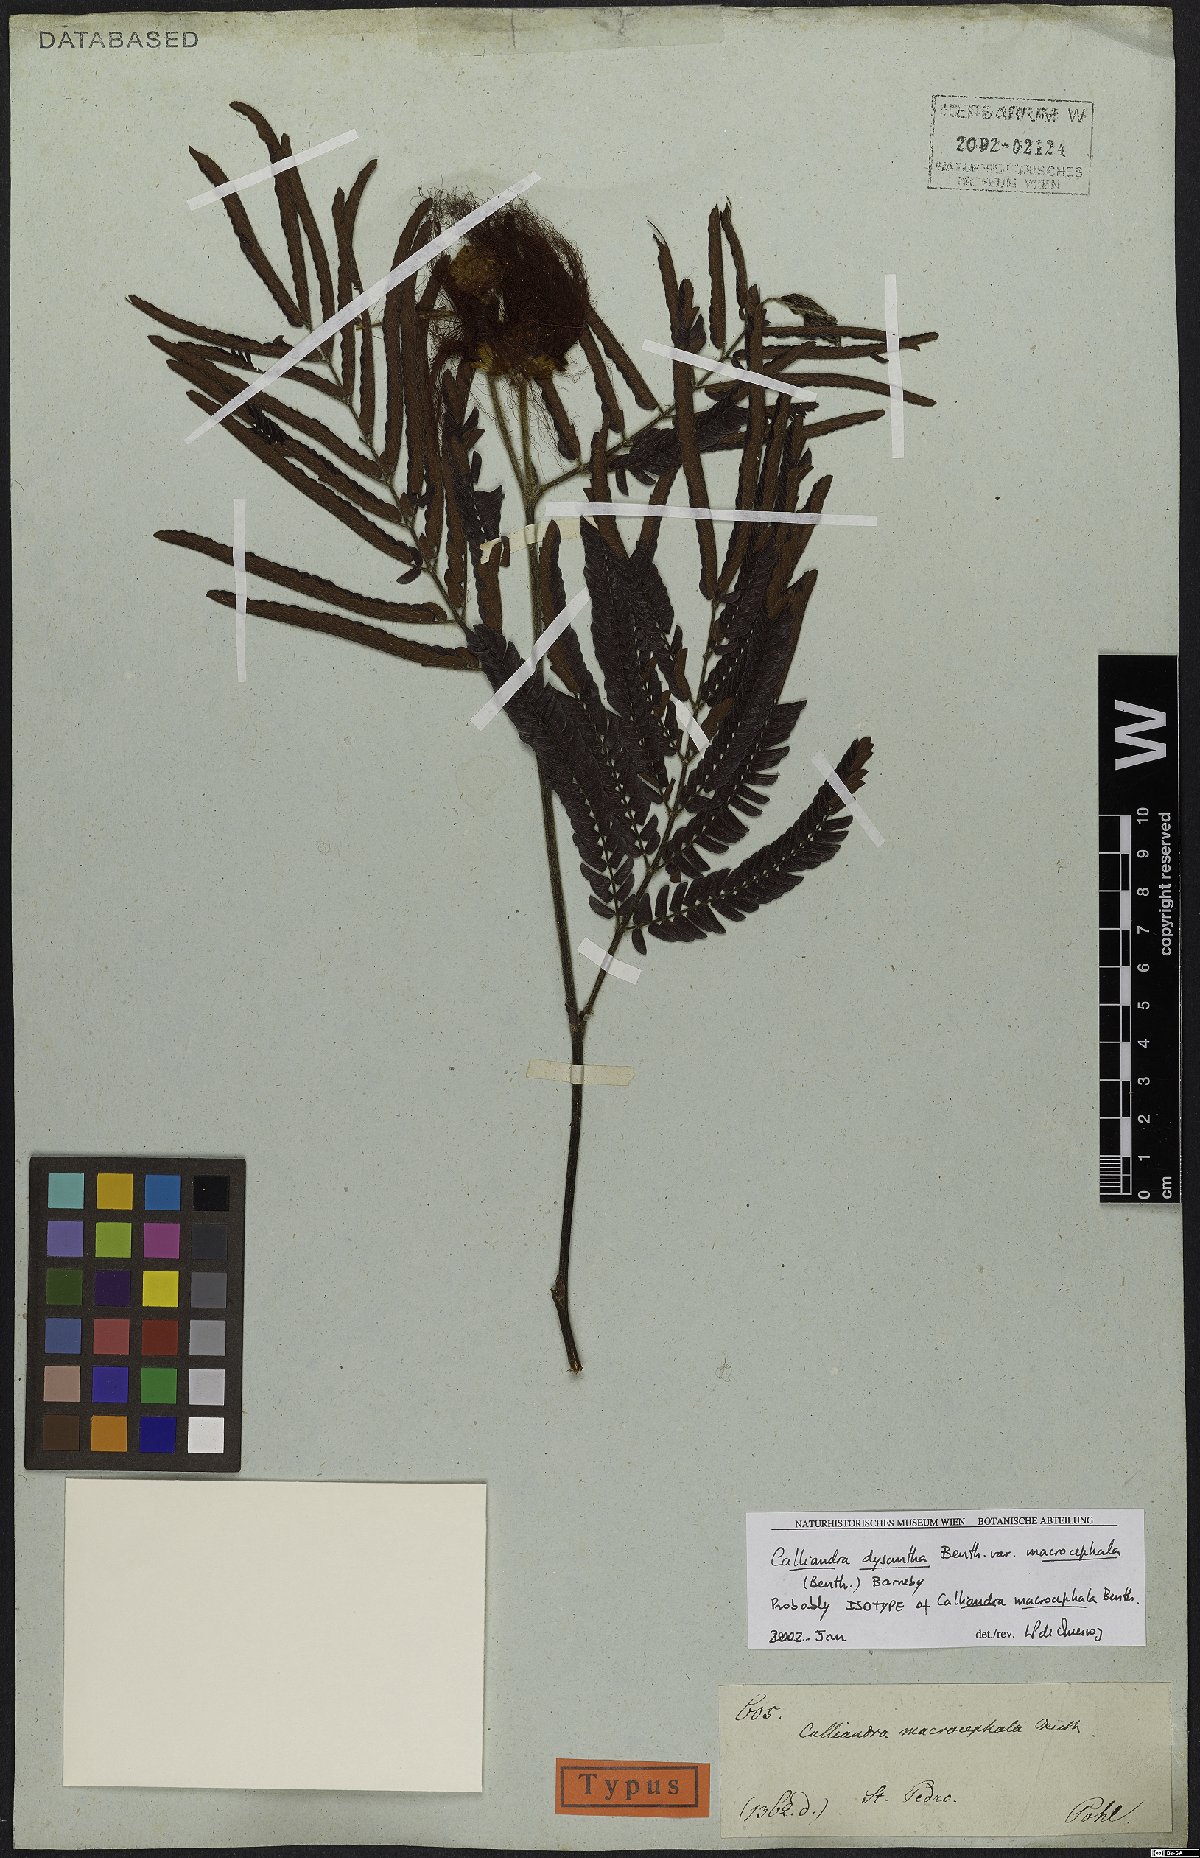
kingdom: Plantae
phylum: Tracheophyta
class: Magnoliopsida
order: Fabales
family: Fabaceae
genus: Calliandra
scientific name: Calliandra dysantha
